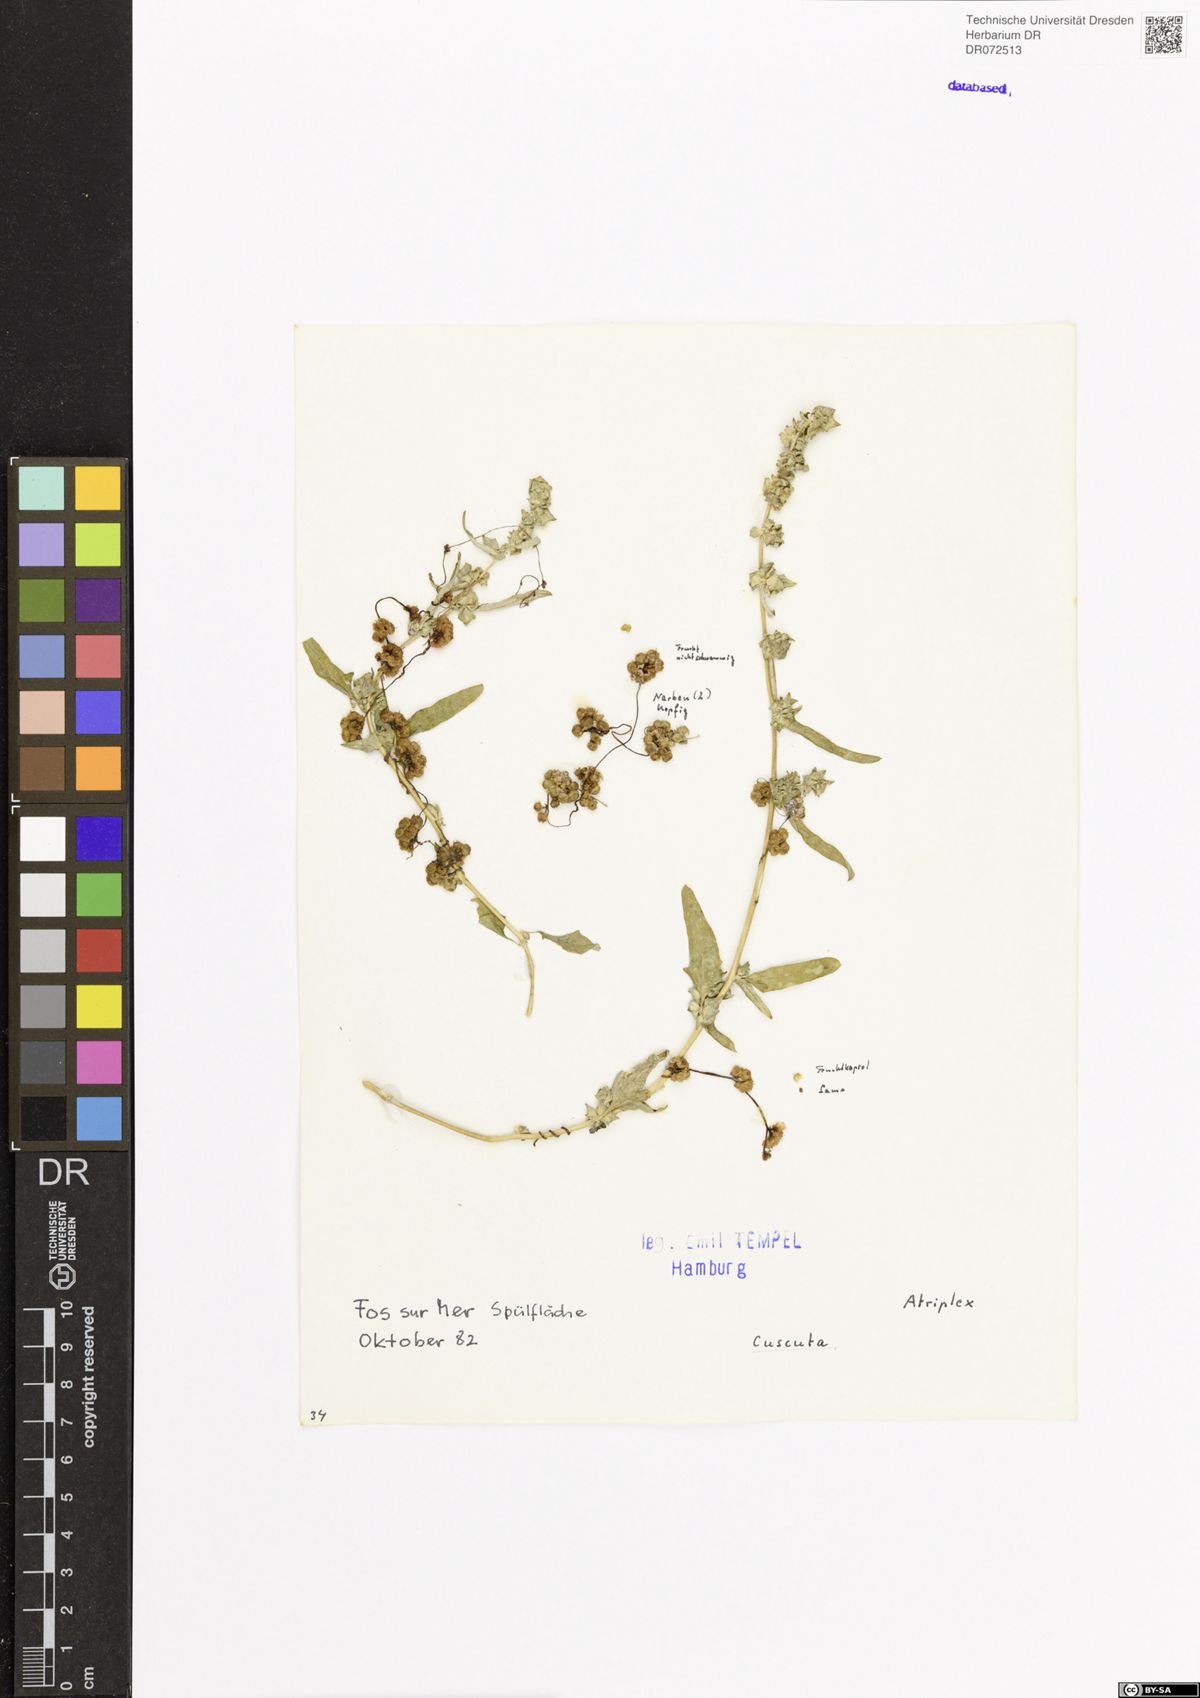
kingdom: Plantae
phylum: Tracheophyta
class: Magnoliopsida
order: Solanales
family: Convolvulaceae
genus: Cuscuta
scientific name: Cuscuta
